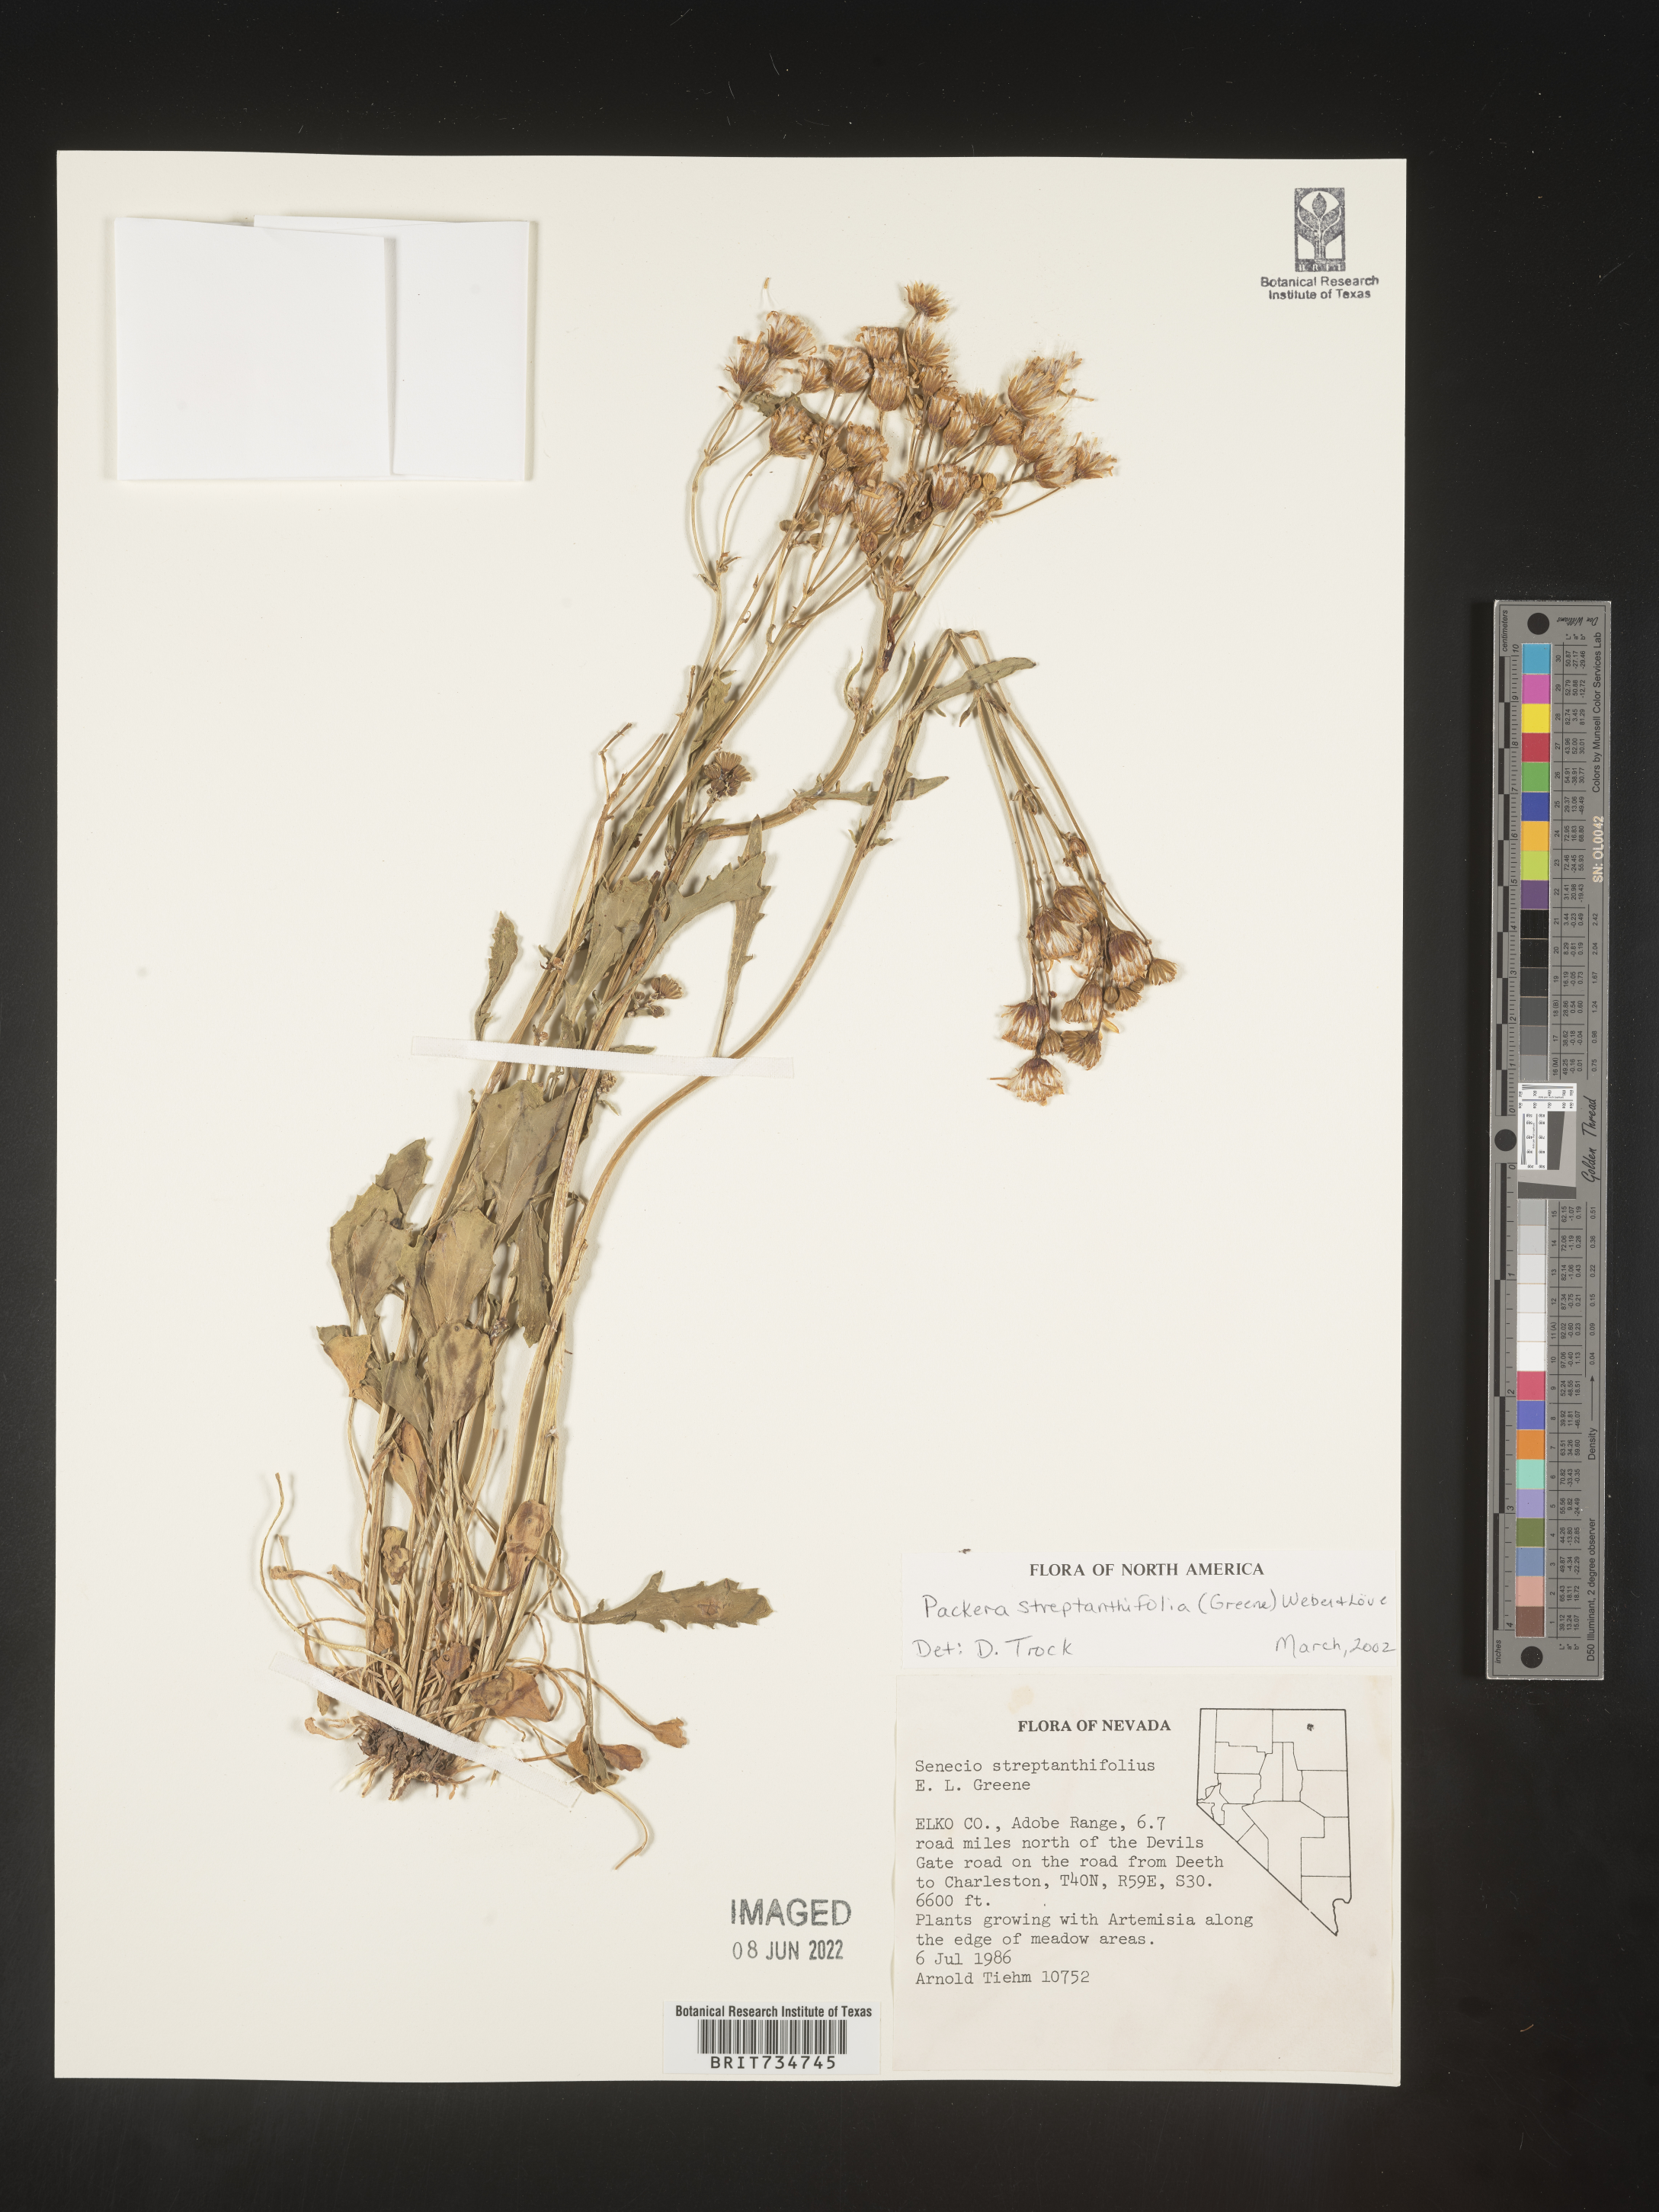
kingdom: Plantae
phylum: Tracheophyta
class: Magnoliopsida
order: Asterales
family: Asteraceae
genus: Packera
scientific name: Packera streptanthifolia
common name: Rocky mountain butterweed
